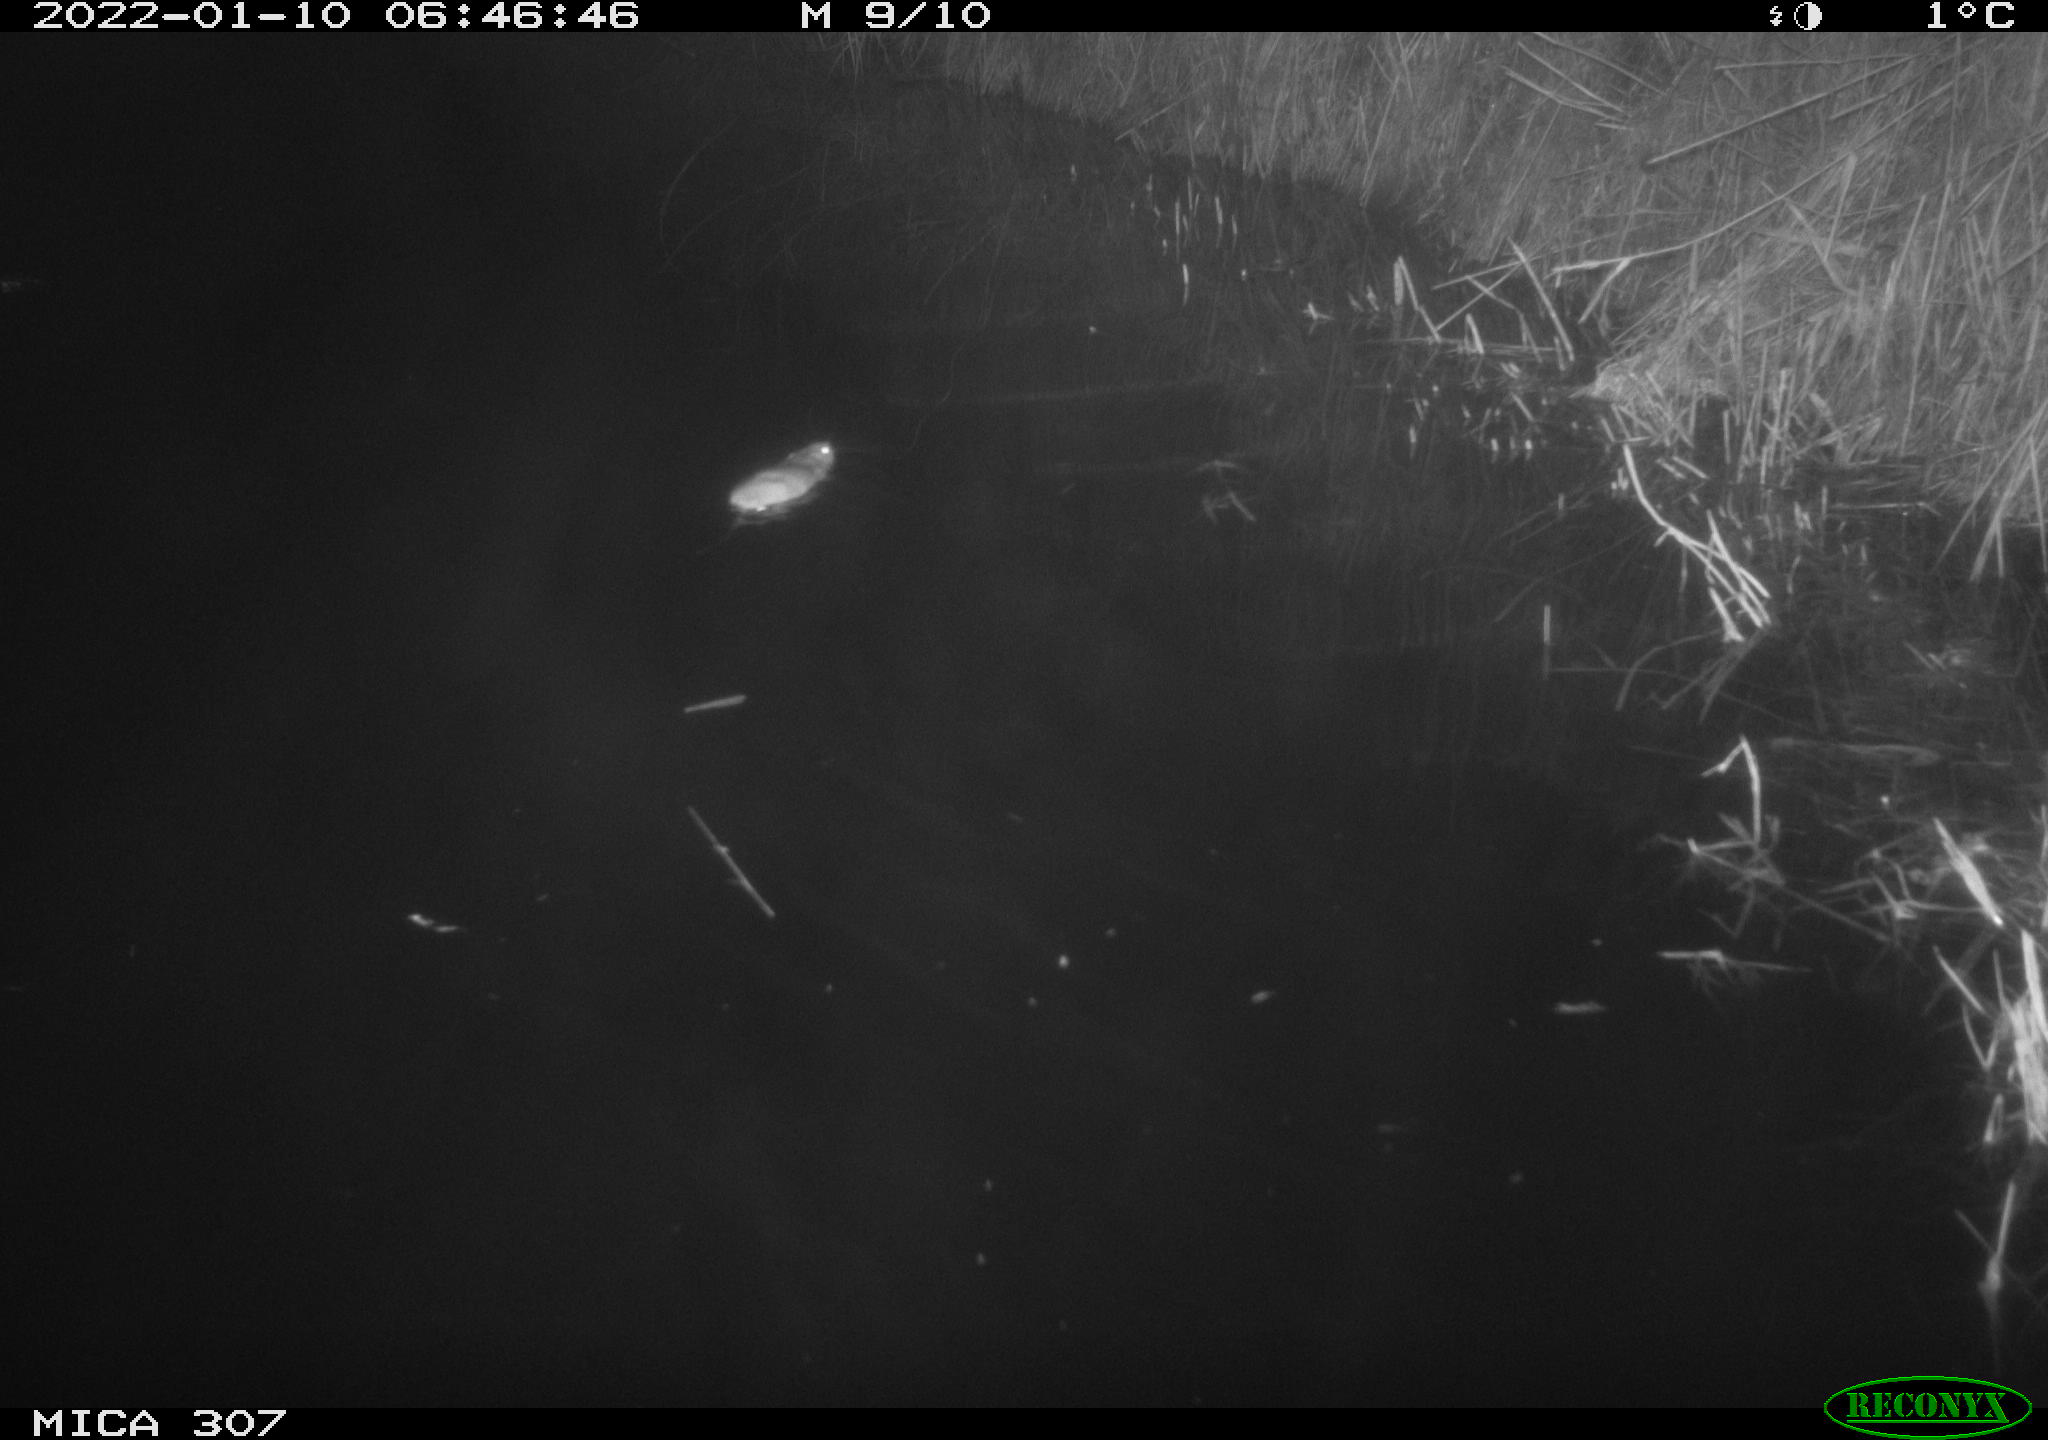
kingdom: Animalia
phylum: Chordata
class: Mammalia
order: Rodentia
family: Muridae
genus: Rattus
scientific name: Rattus norvegicus
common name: Brown rat
